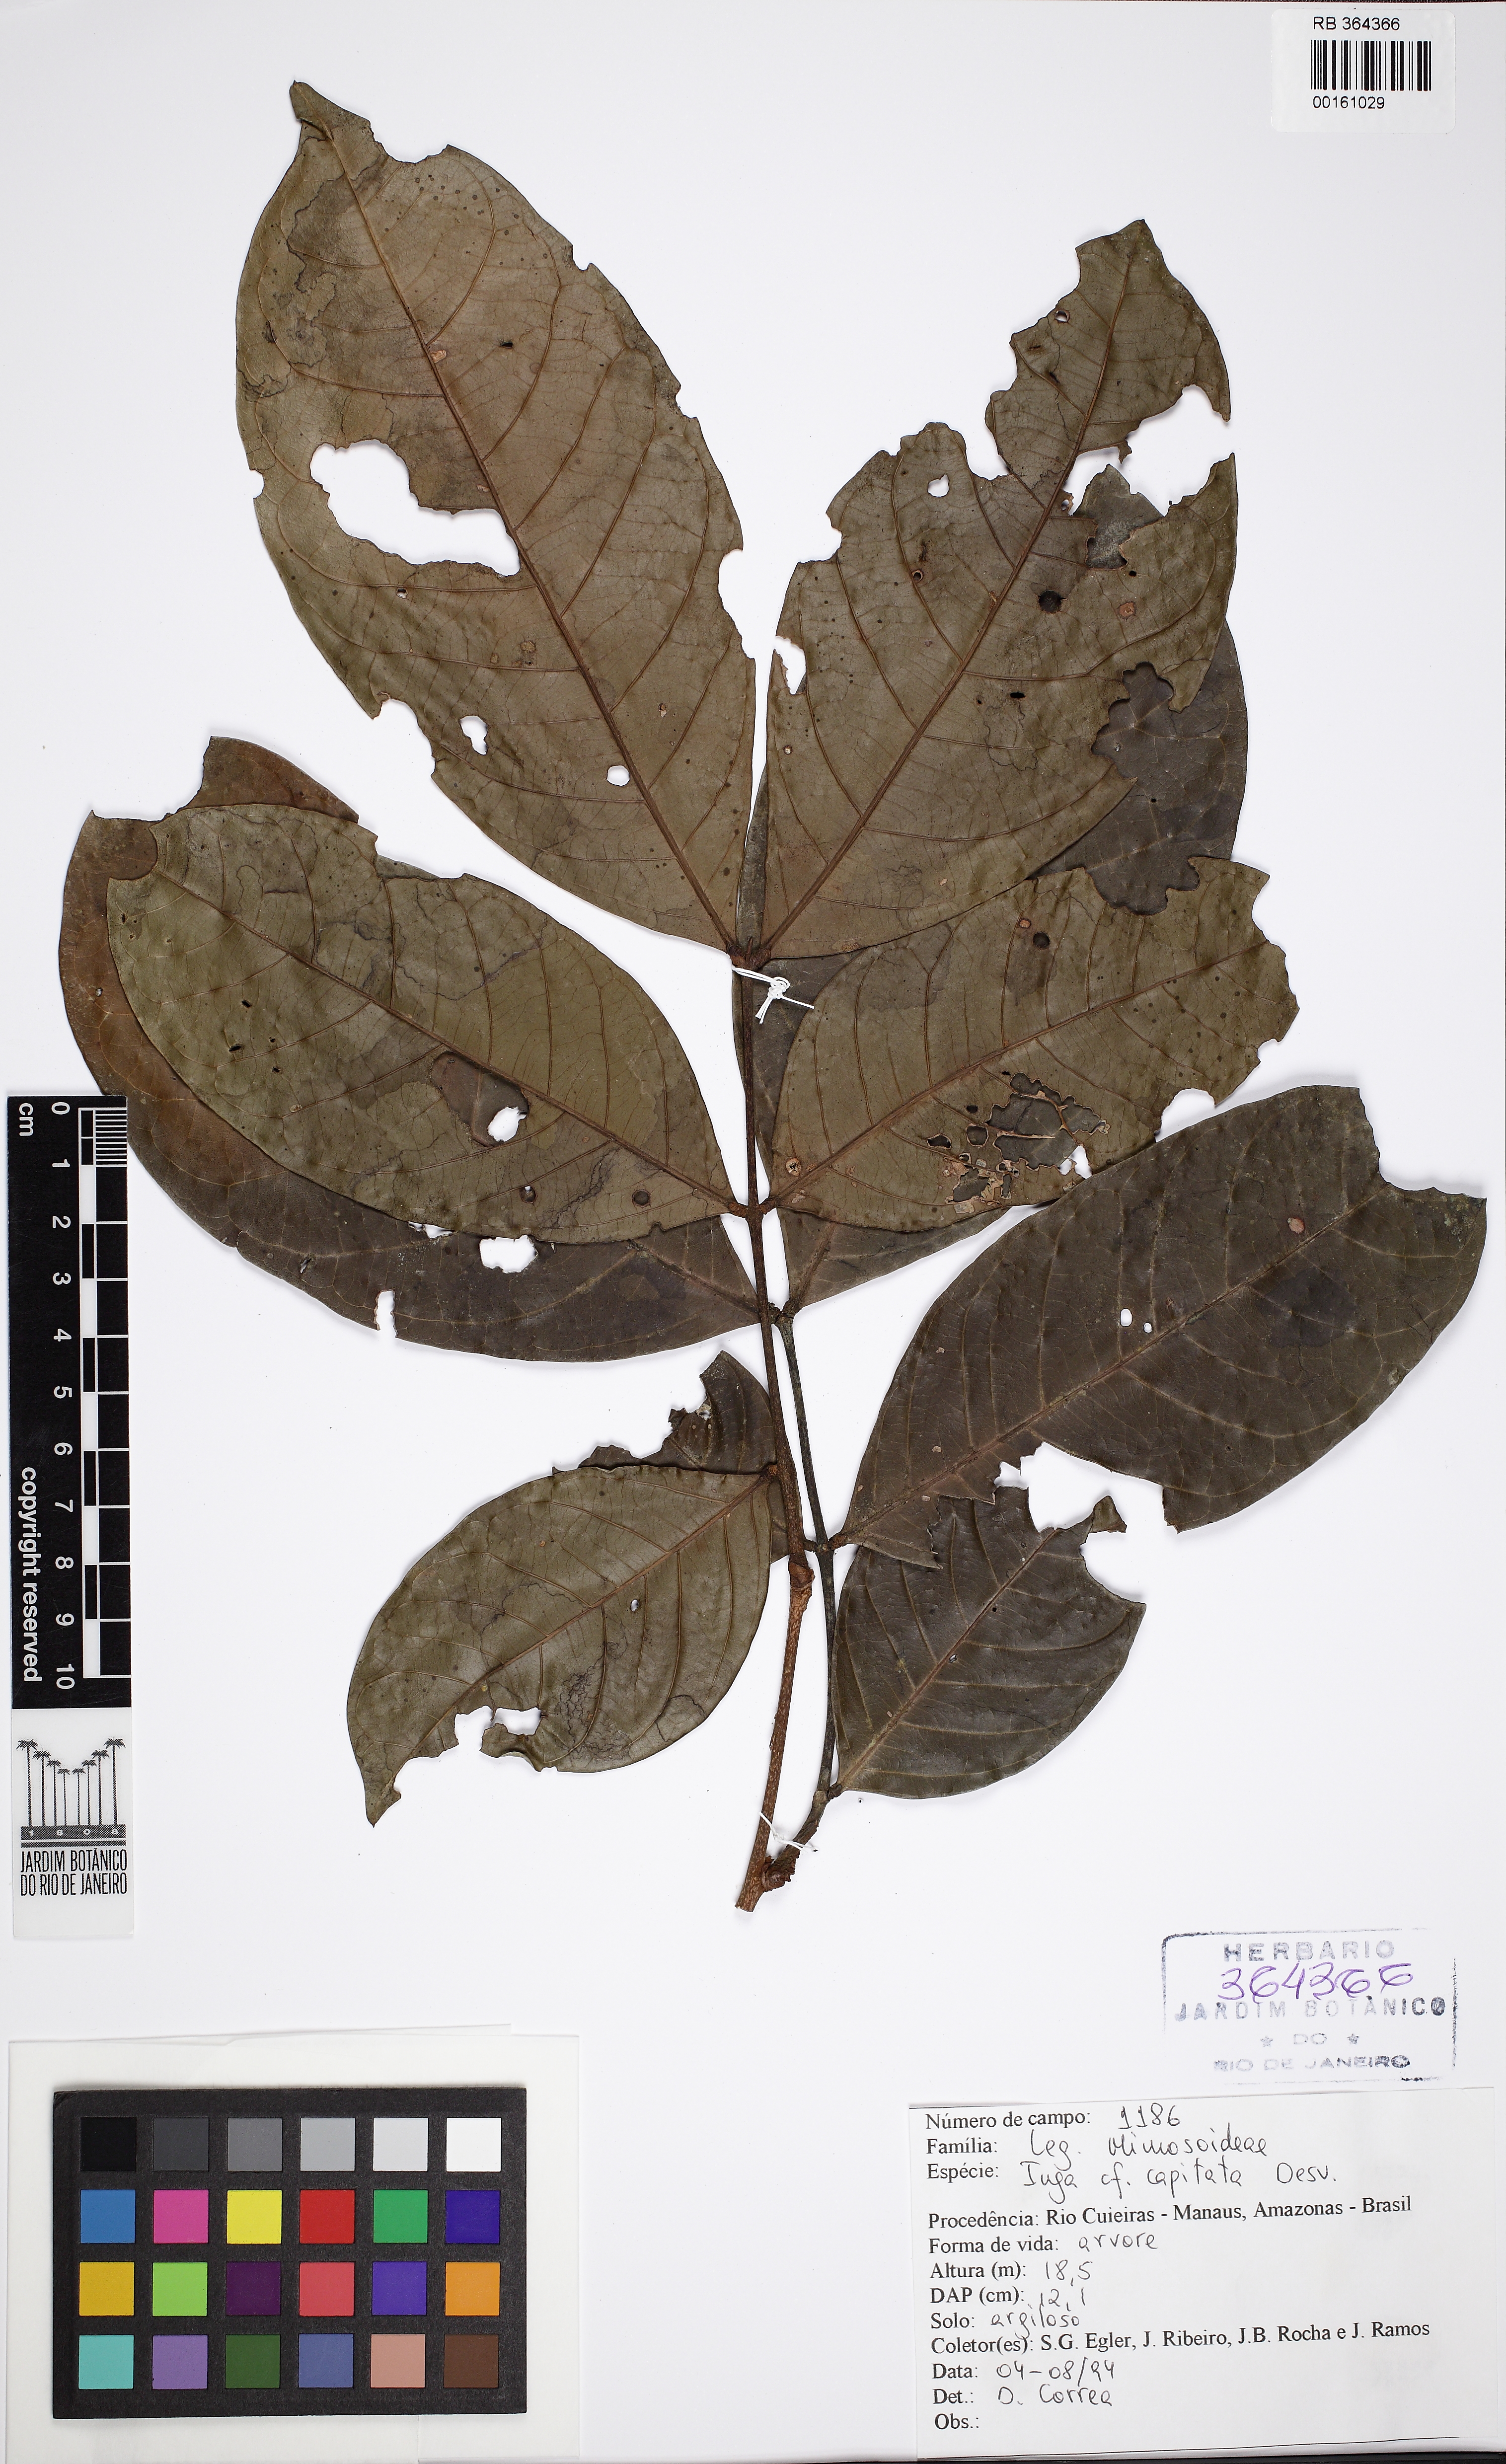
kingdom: Plantae
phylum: Tracheophyta
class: Magnoliopsida
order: Fabales
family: Fabaceae
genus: Inga
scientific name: Inga capitata
